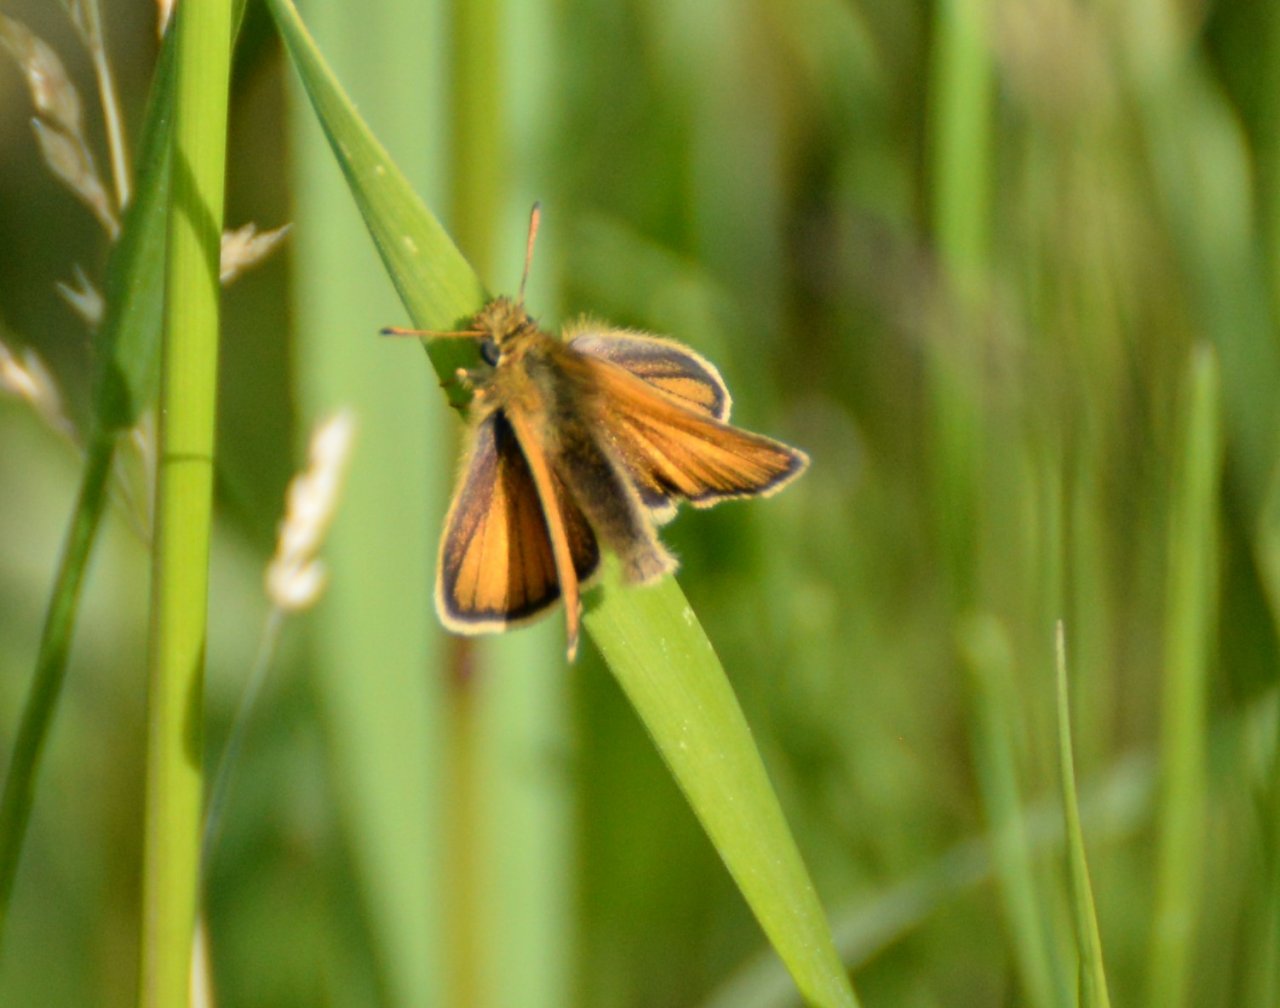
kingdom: Animalia
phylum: Arthropoda
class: Insecta
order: Lepidoptera
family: Hesperiidae
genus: Thymelicus
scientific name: Thymelicus lineola
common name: European Skipper
